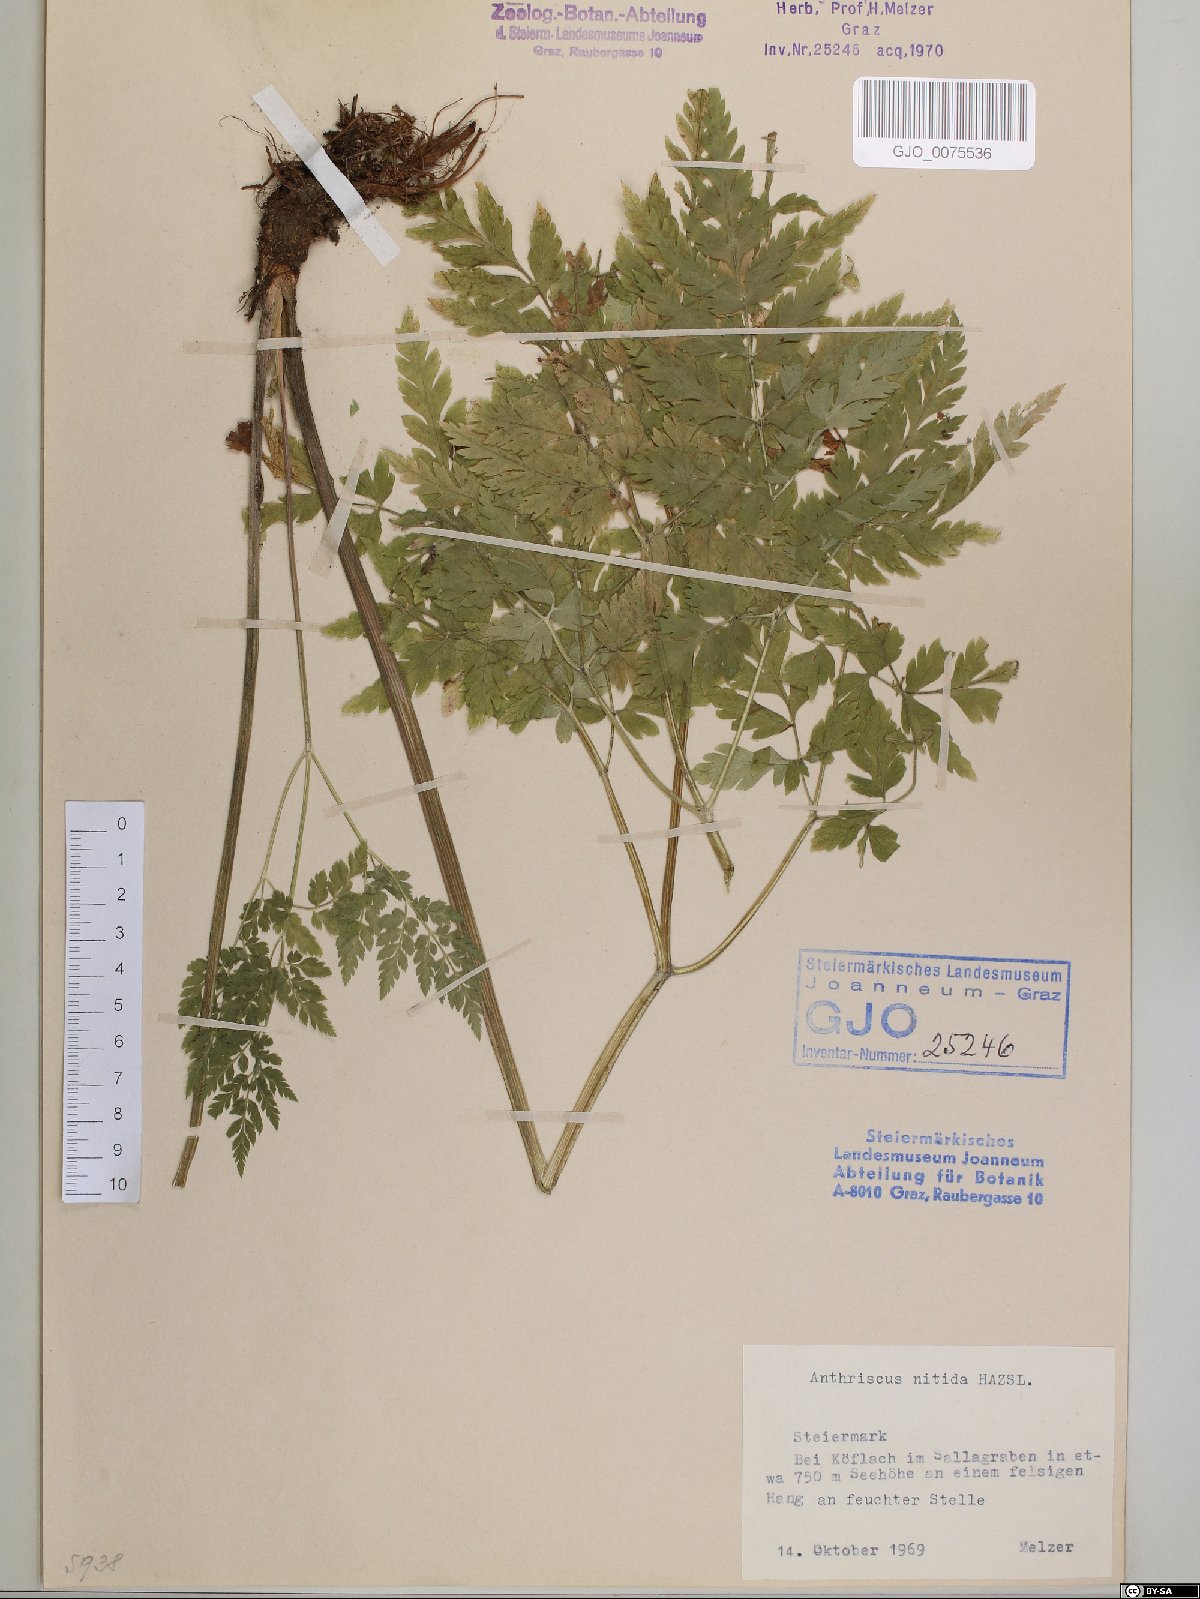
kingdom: Plantae
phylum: Tracheophyta
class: Magnoliopsida
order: Apiales
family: Apiaceae
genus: Anthriscus
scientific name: Anthriscus nitida
